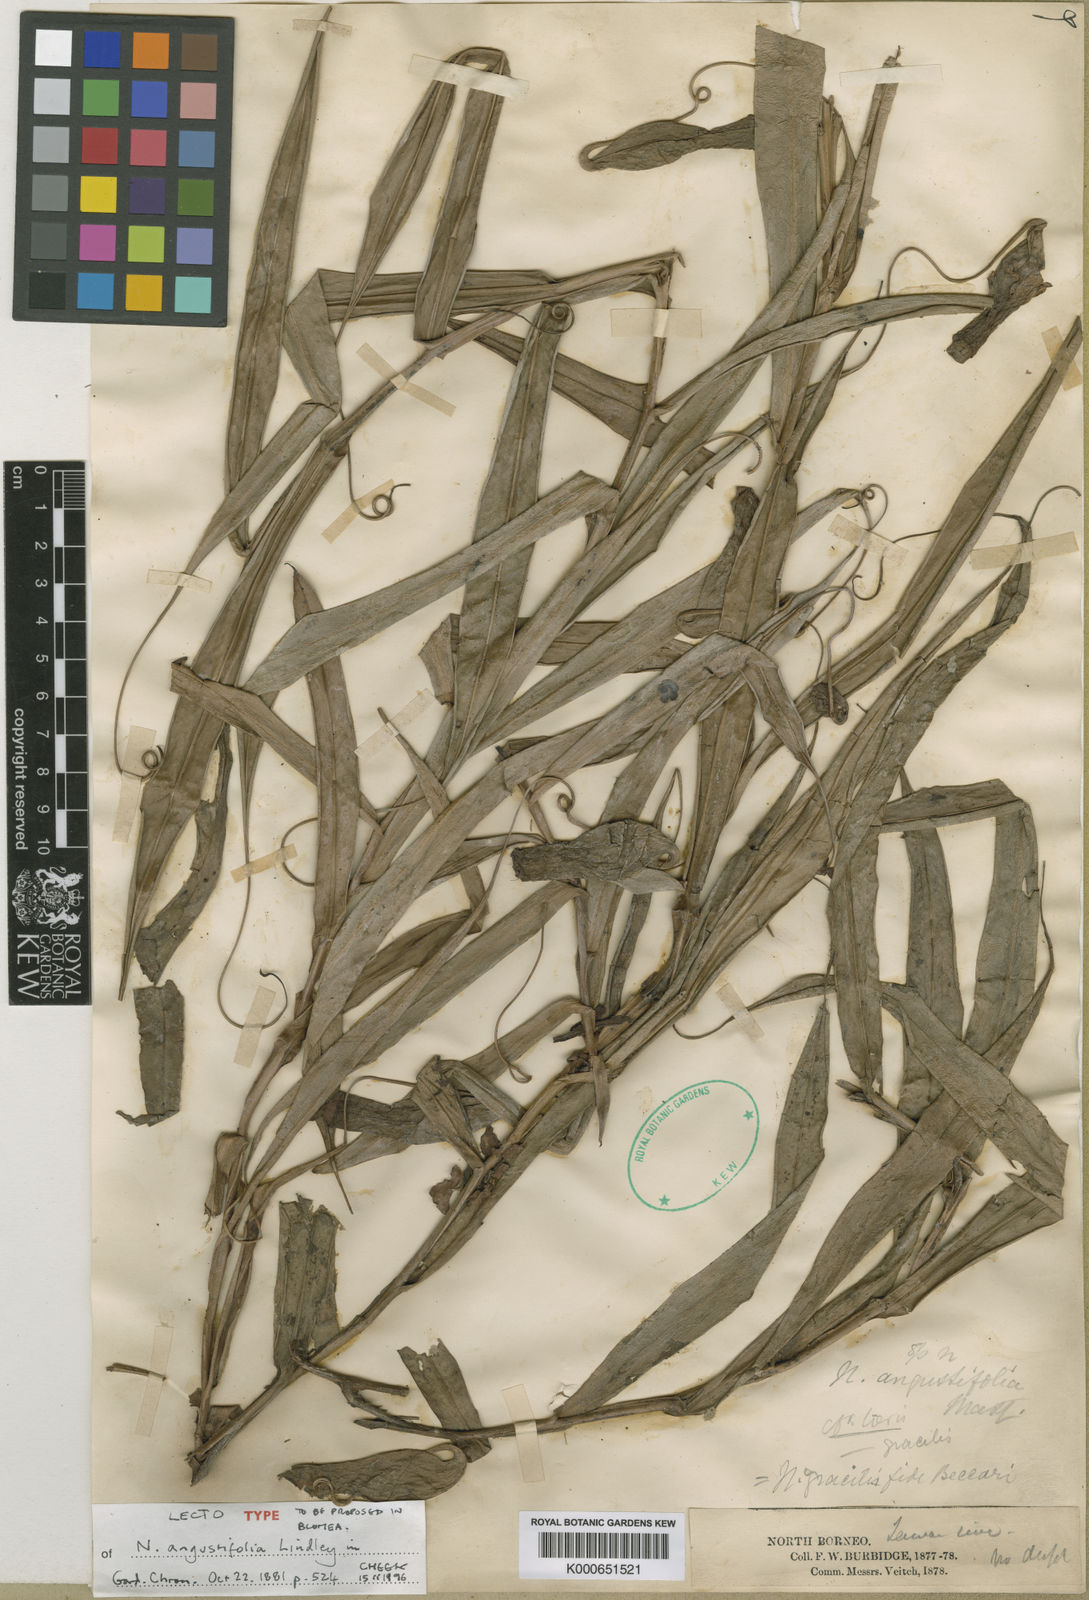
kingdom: Plantae
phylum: Tracheophyta
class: Magnoliopsida
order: Caryophyllales
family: Nepenthaceae
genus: Nepenthes
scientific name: Nepenthes gracilis
